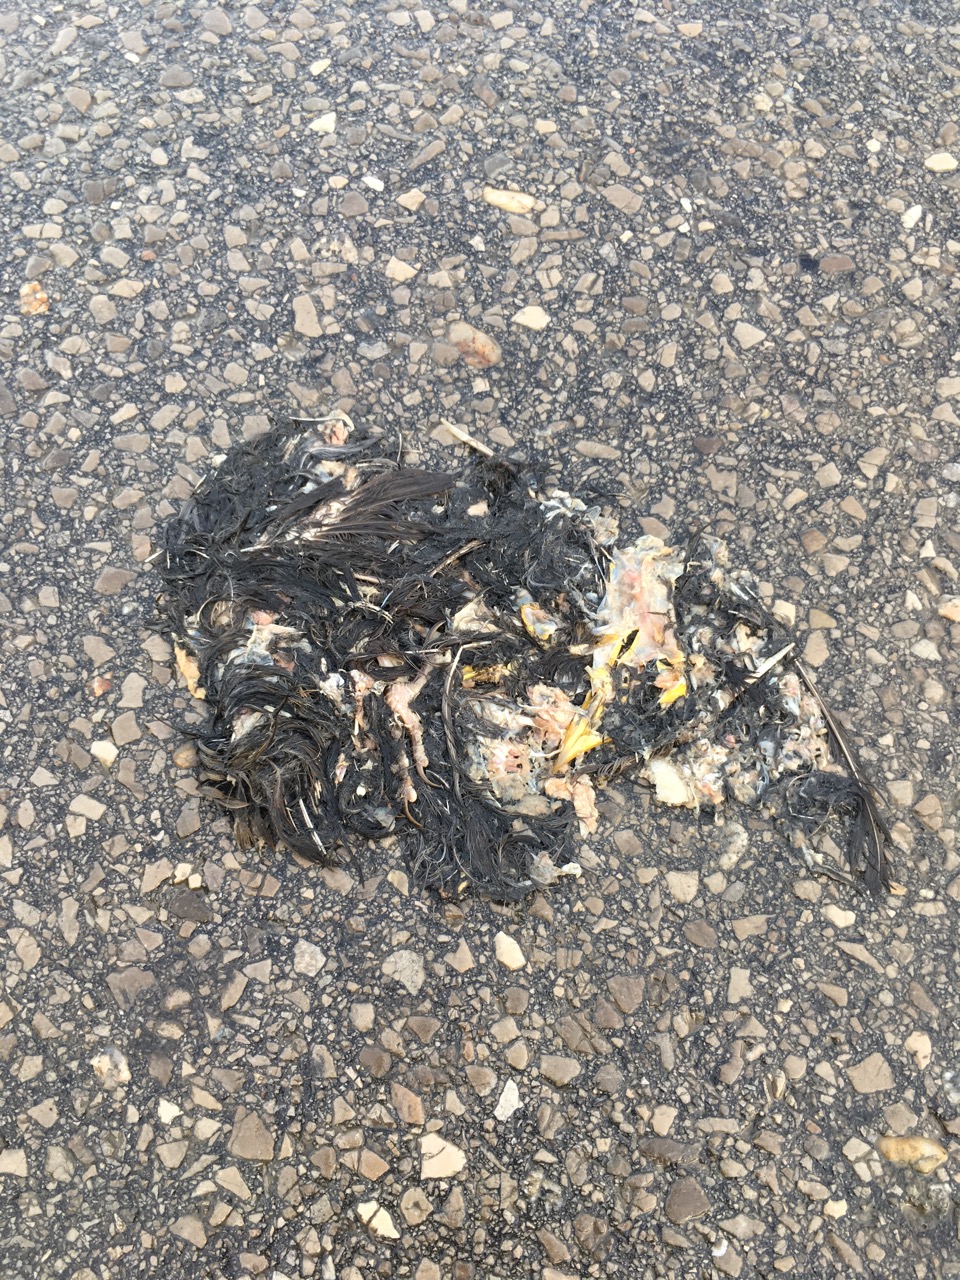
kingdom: Animalia
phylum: Chordata
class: Aves
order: Passeriformes
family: Turdidae
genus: Turdus
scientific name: Turdus merula
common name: Common blackbird
